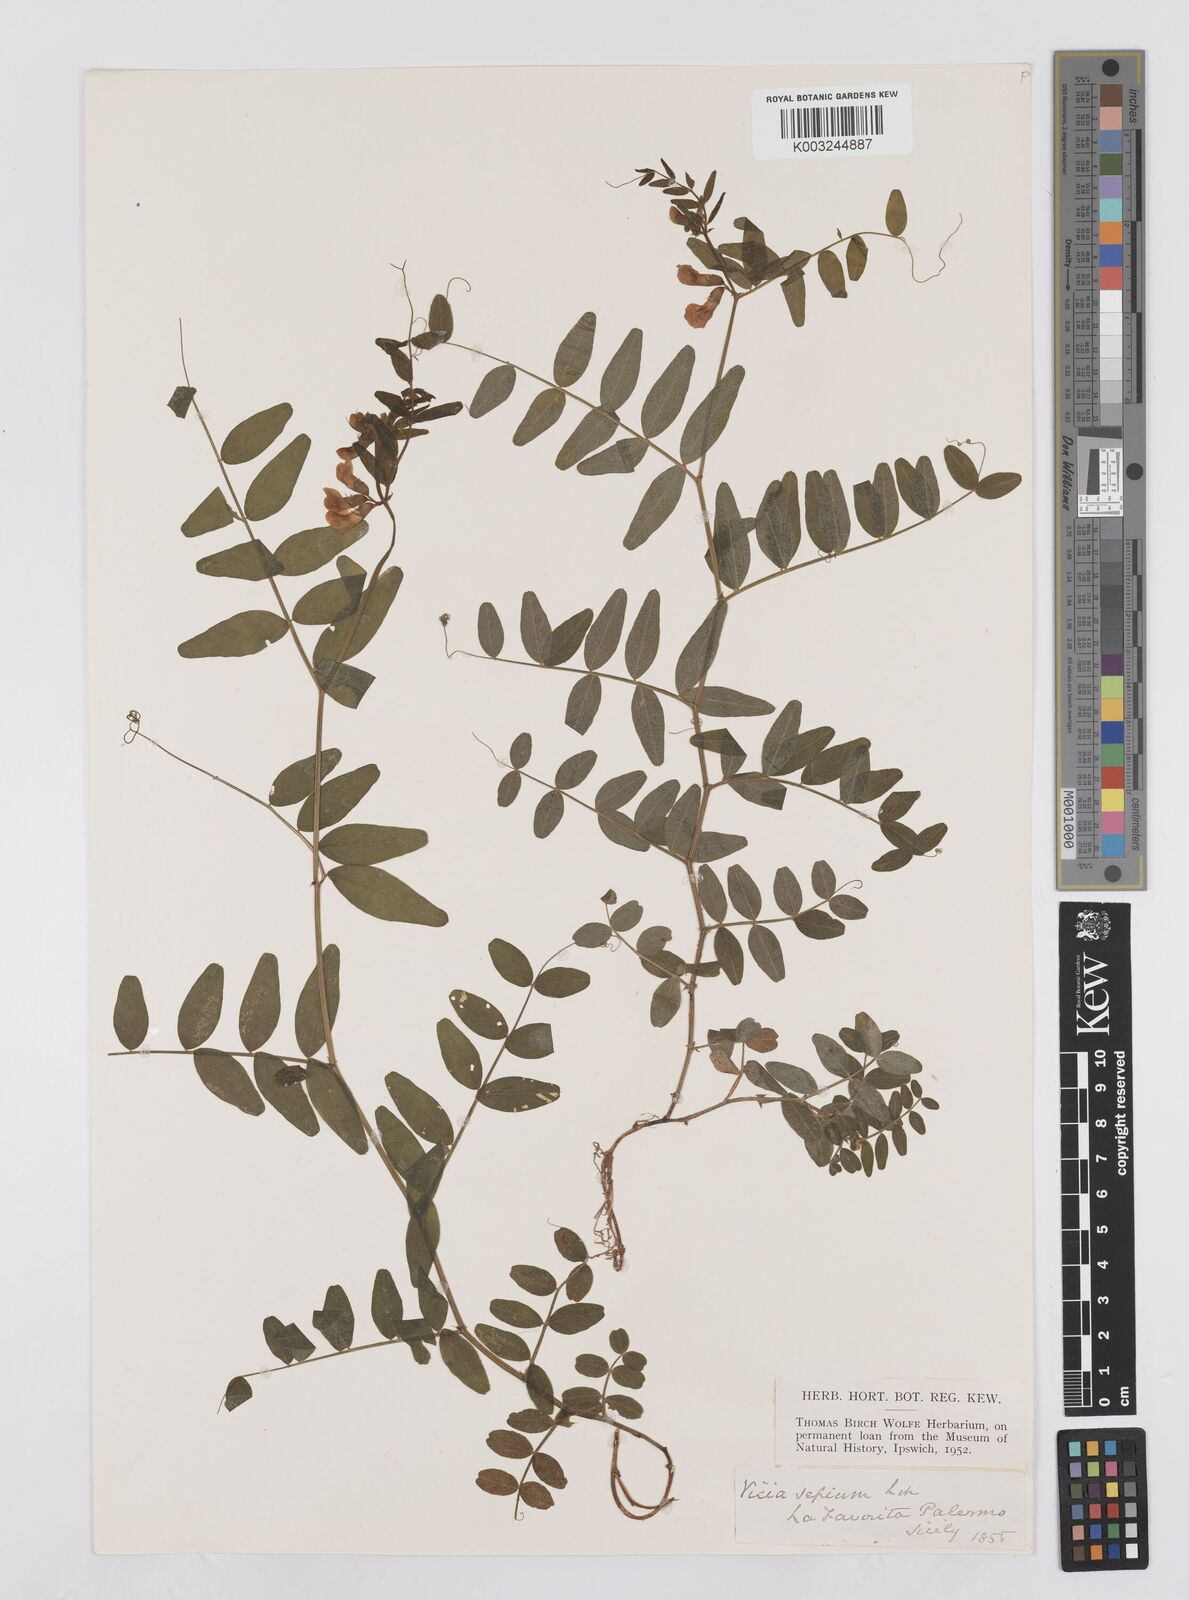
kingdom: Plantae
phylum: Tracheophyta
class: Magnoliopsida
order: Fabales
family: Fabaceae
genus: Vicia
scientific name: Vicia sepium
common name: Bush vetch
